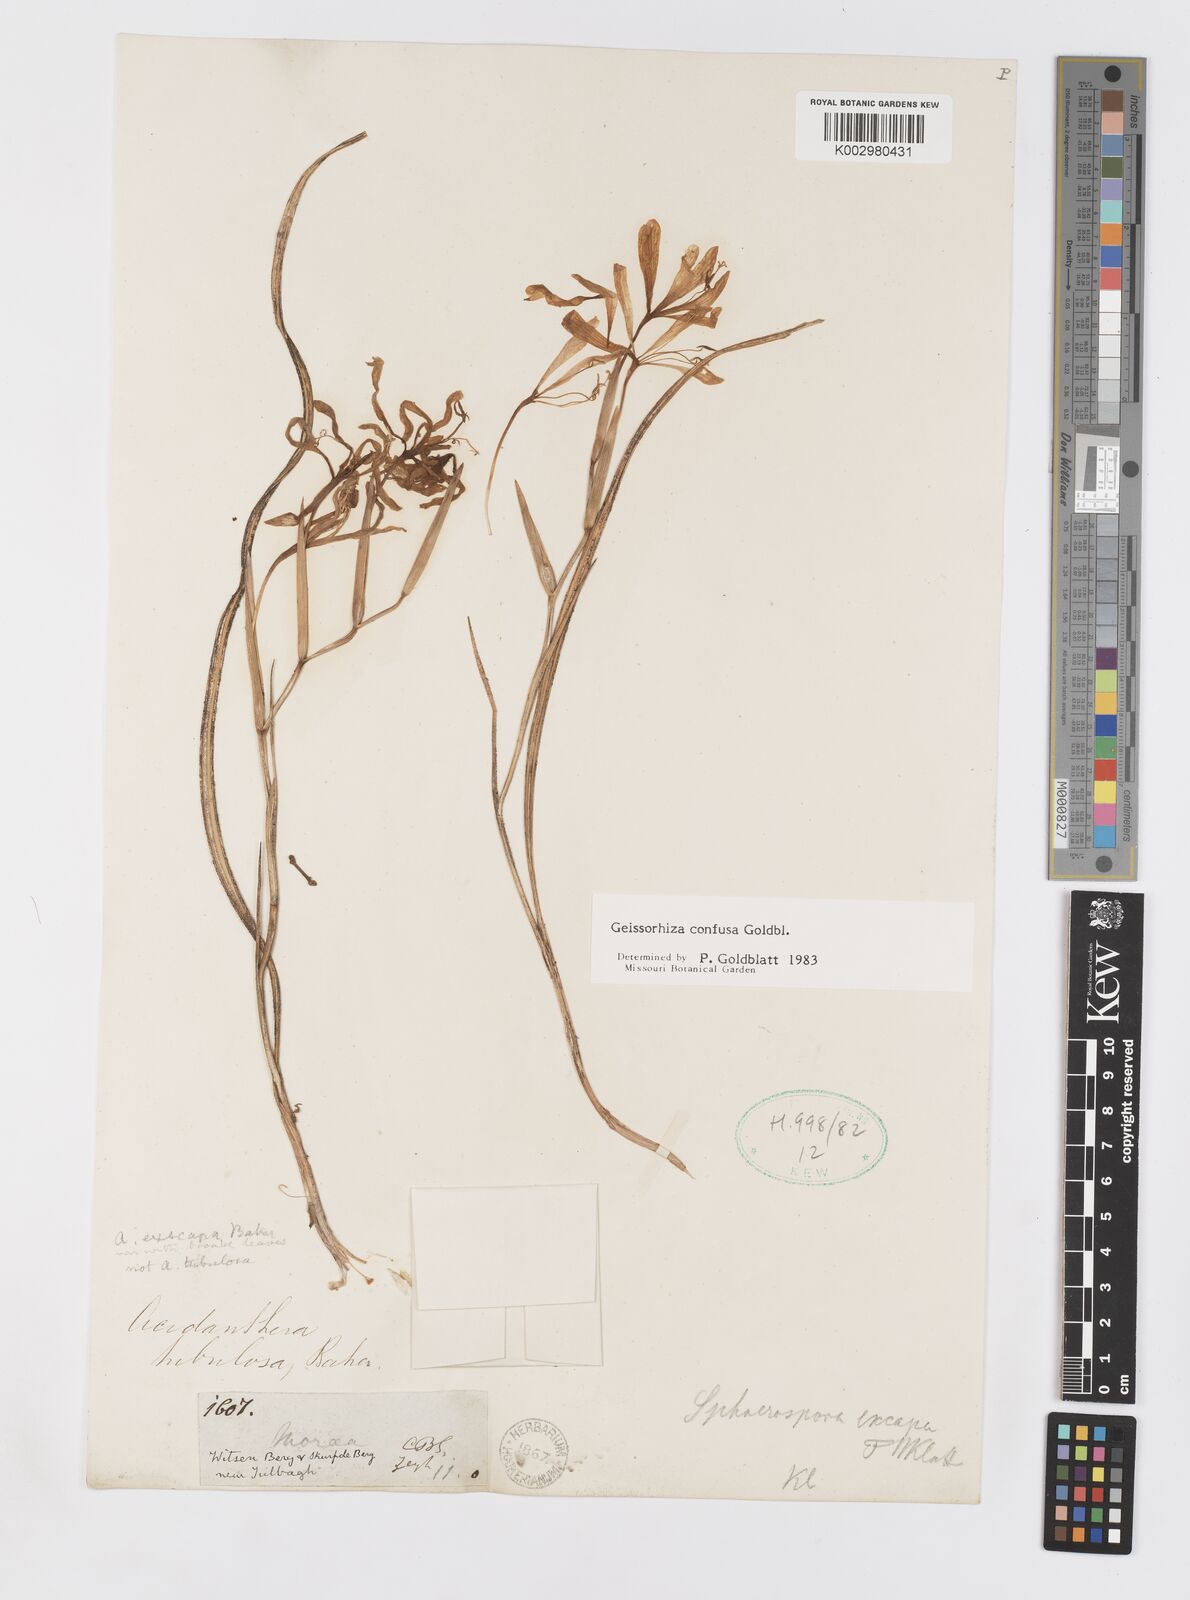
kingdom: Plantae
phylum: Tracheophyta
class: Liliopsida
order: Asparagales
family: Iridaceae
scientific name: Iridaceae
